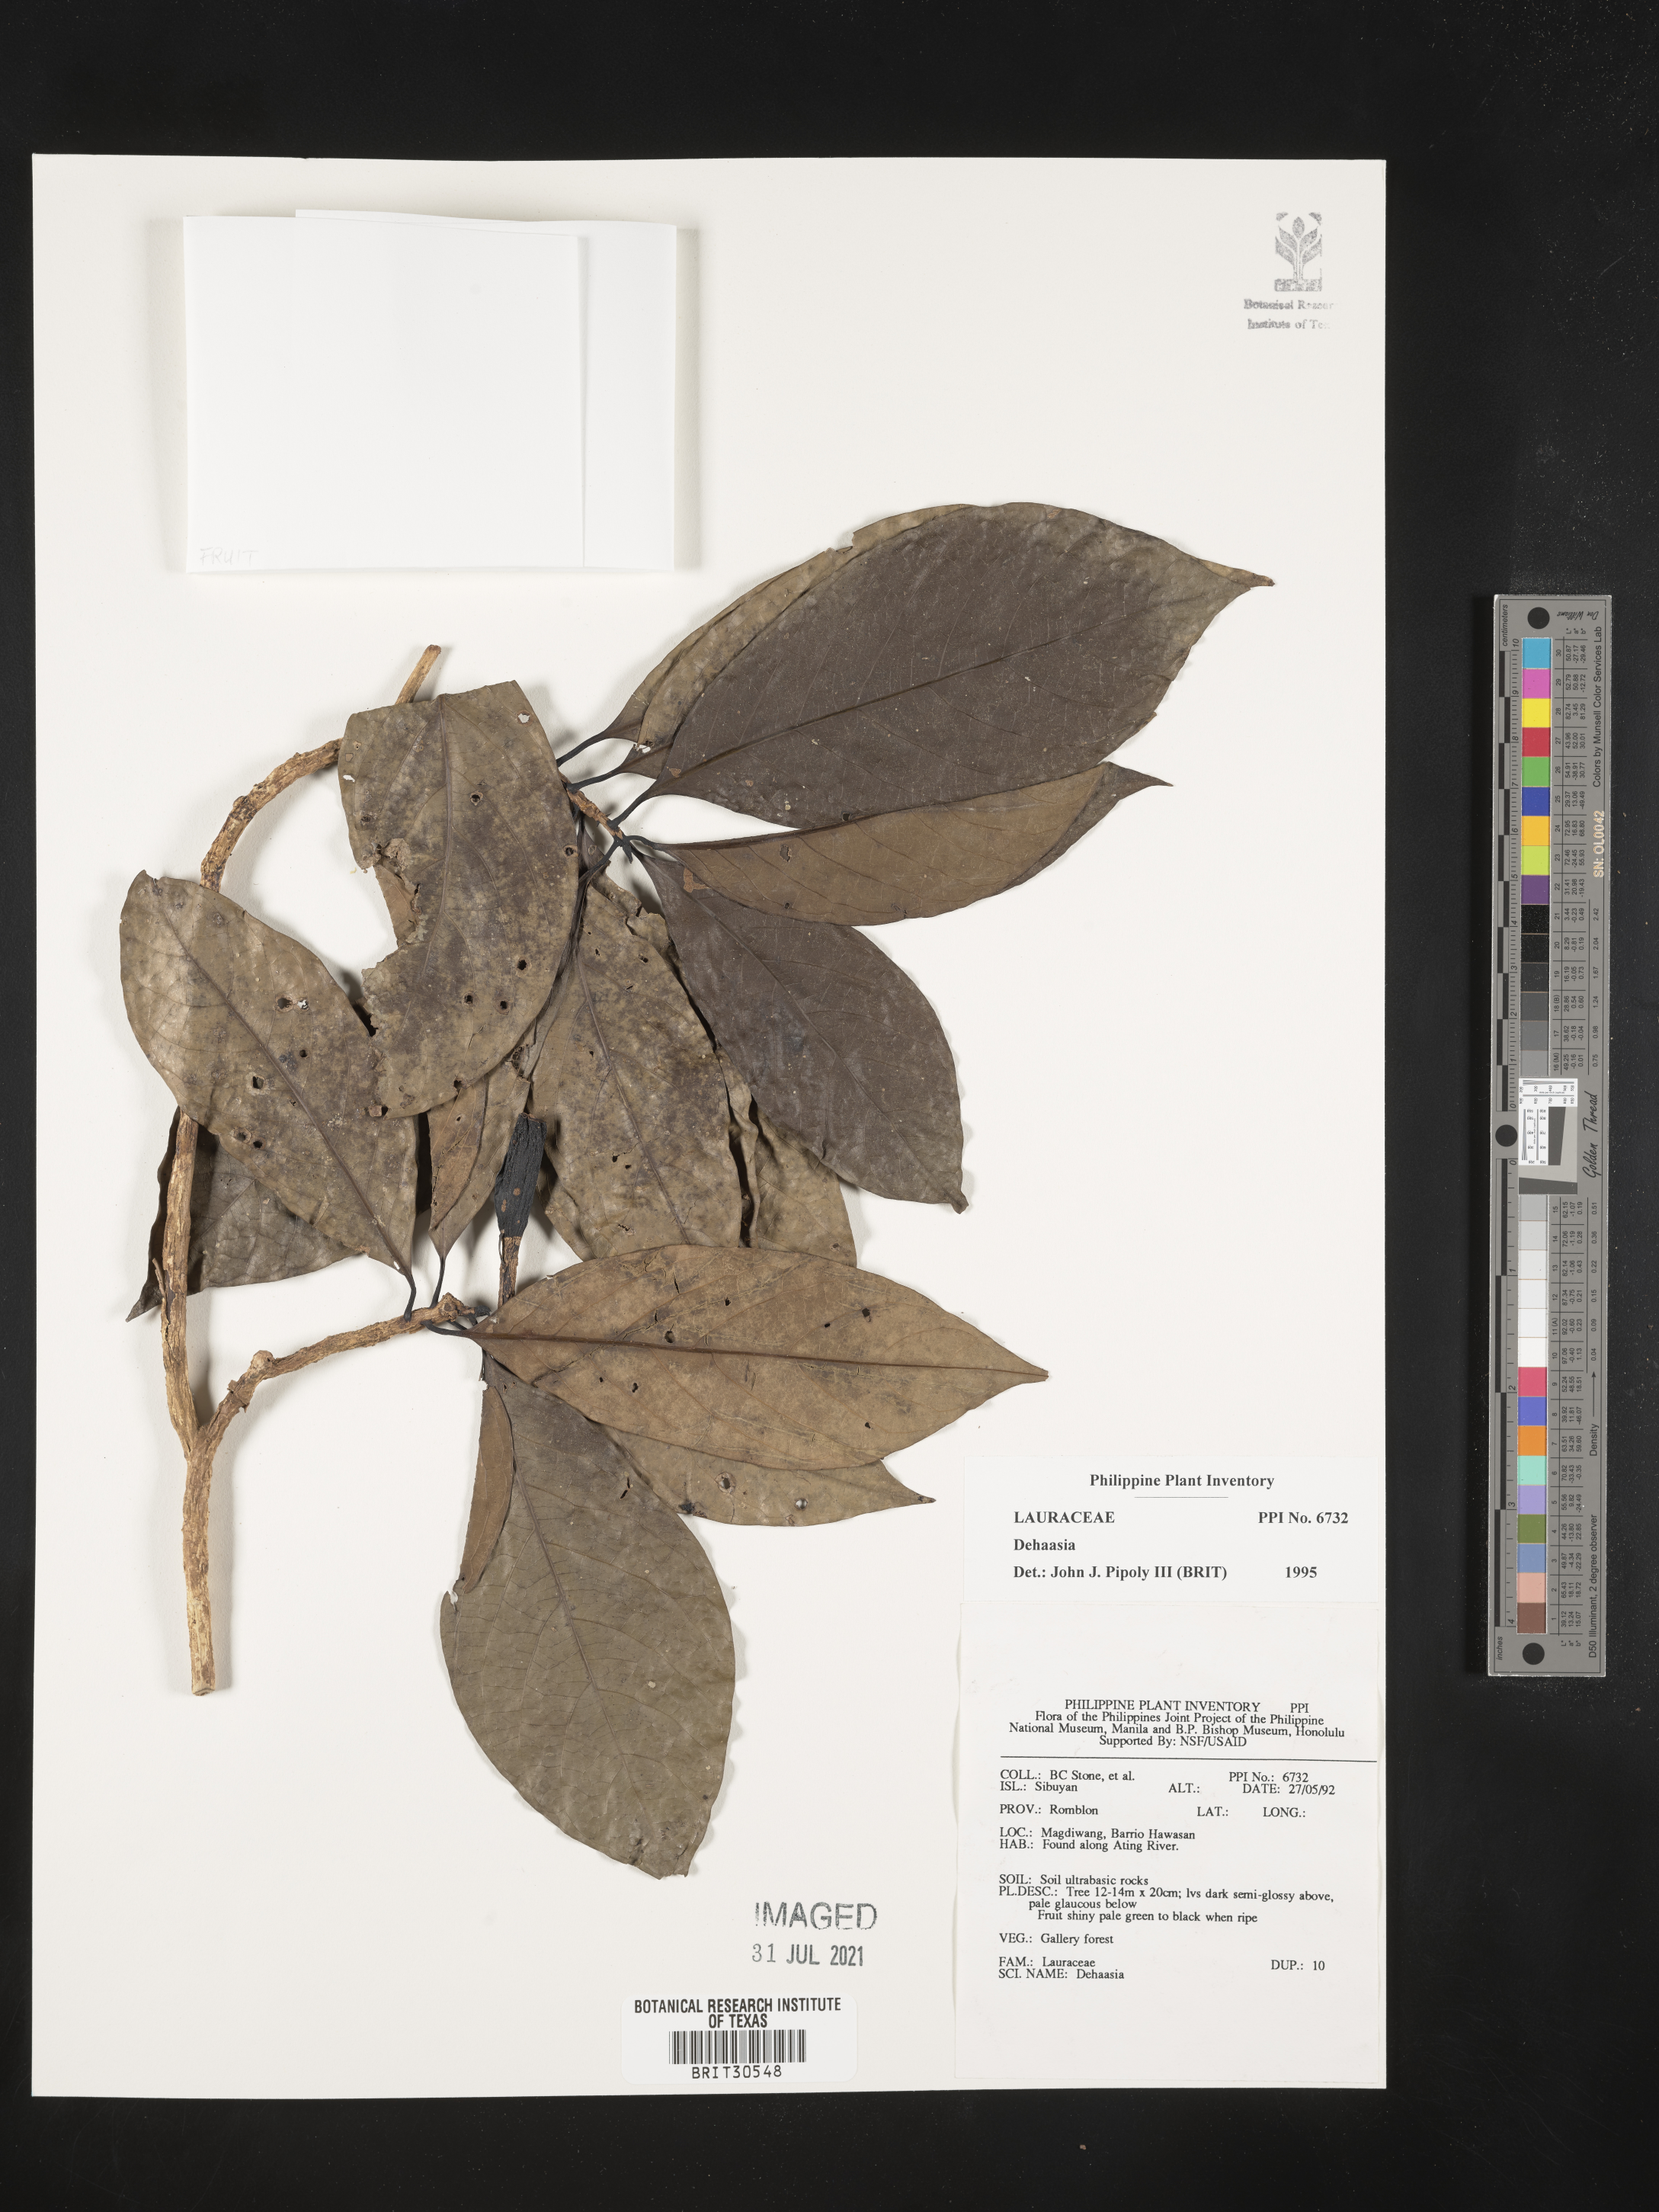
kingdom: Plantae
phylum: Tracheophyta
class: Magnoliopsida
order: Laurales
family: Lauraceae
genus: Dehaasia
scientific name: Dehaasia
